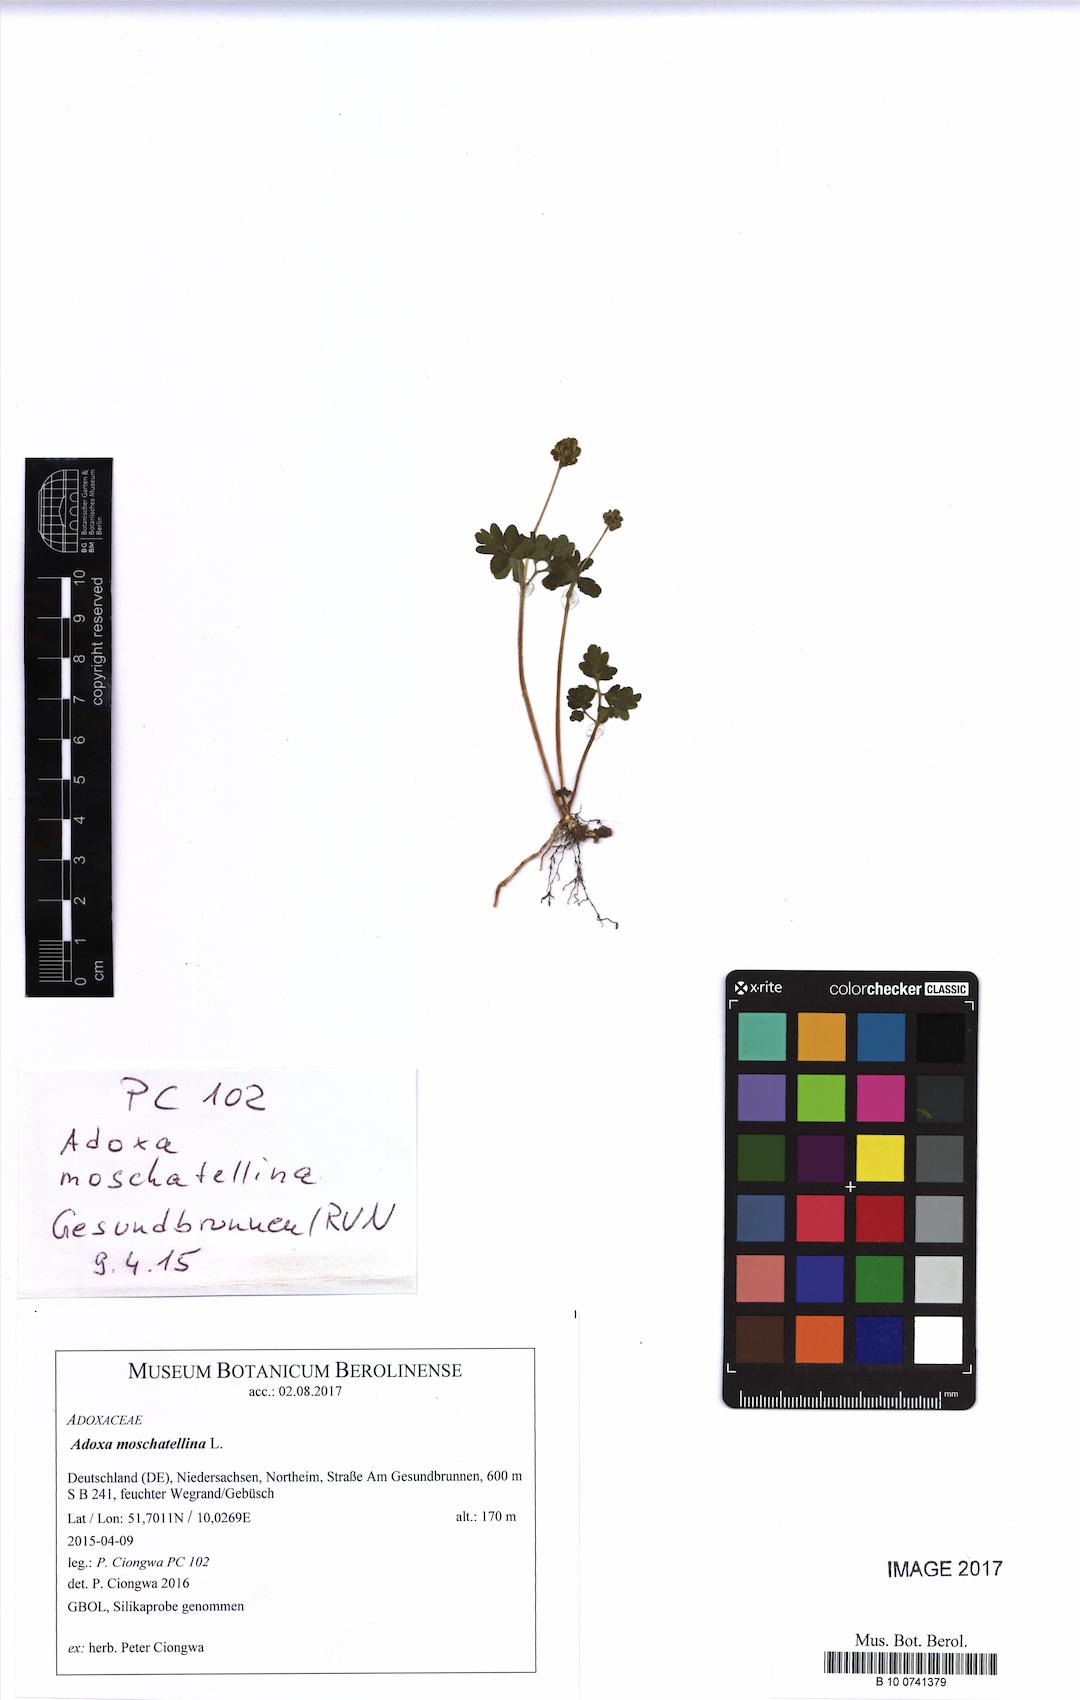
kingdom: Plantae
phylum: Tracheophyta
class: Magnoliopsida
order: Dipsacales
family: Viburnaceae
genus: Adoxa
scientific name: Adoxa moschatellina
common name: Moschatel
